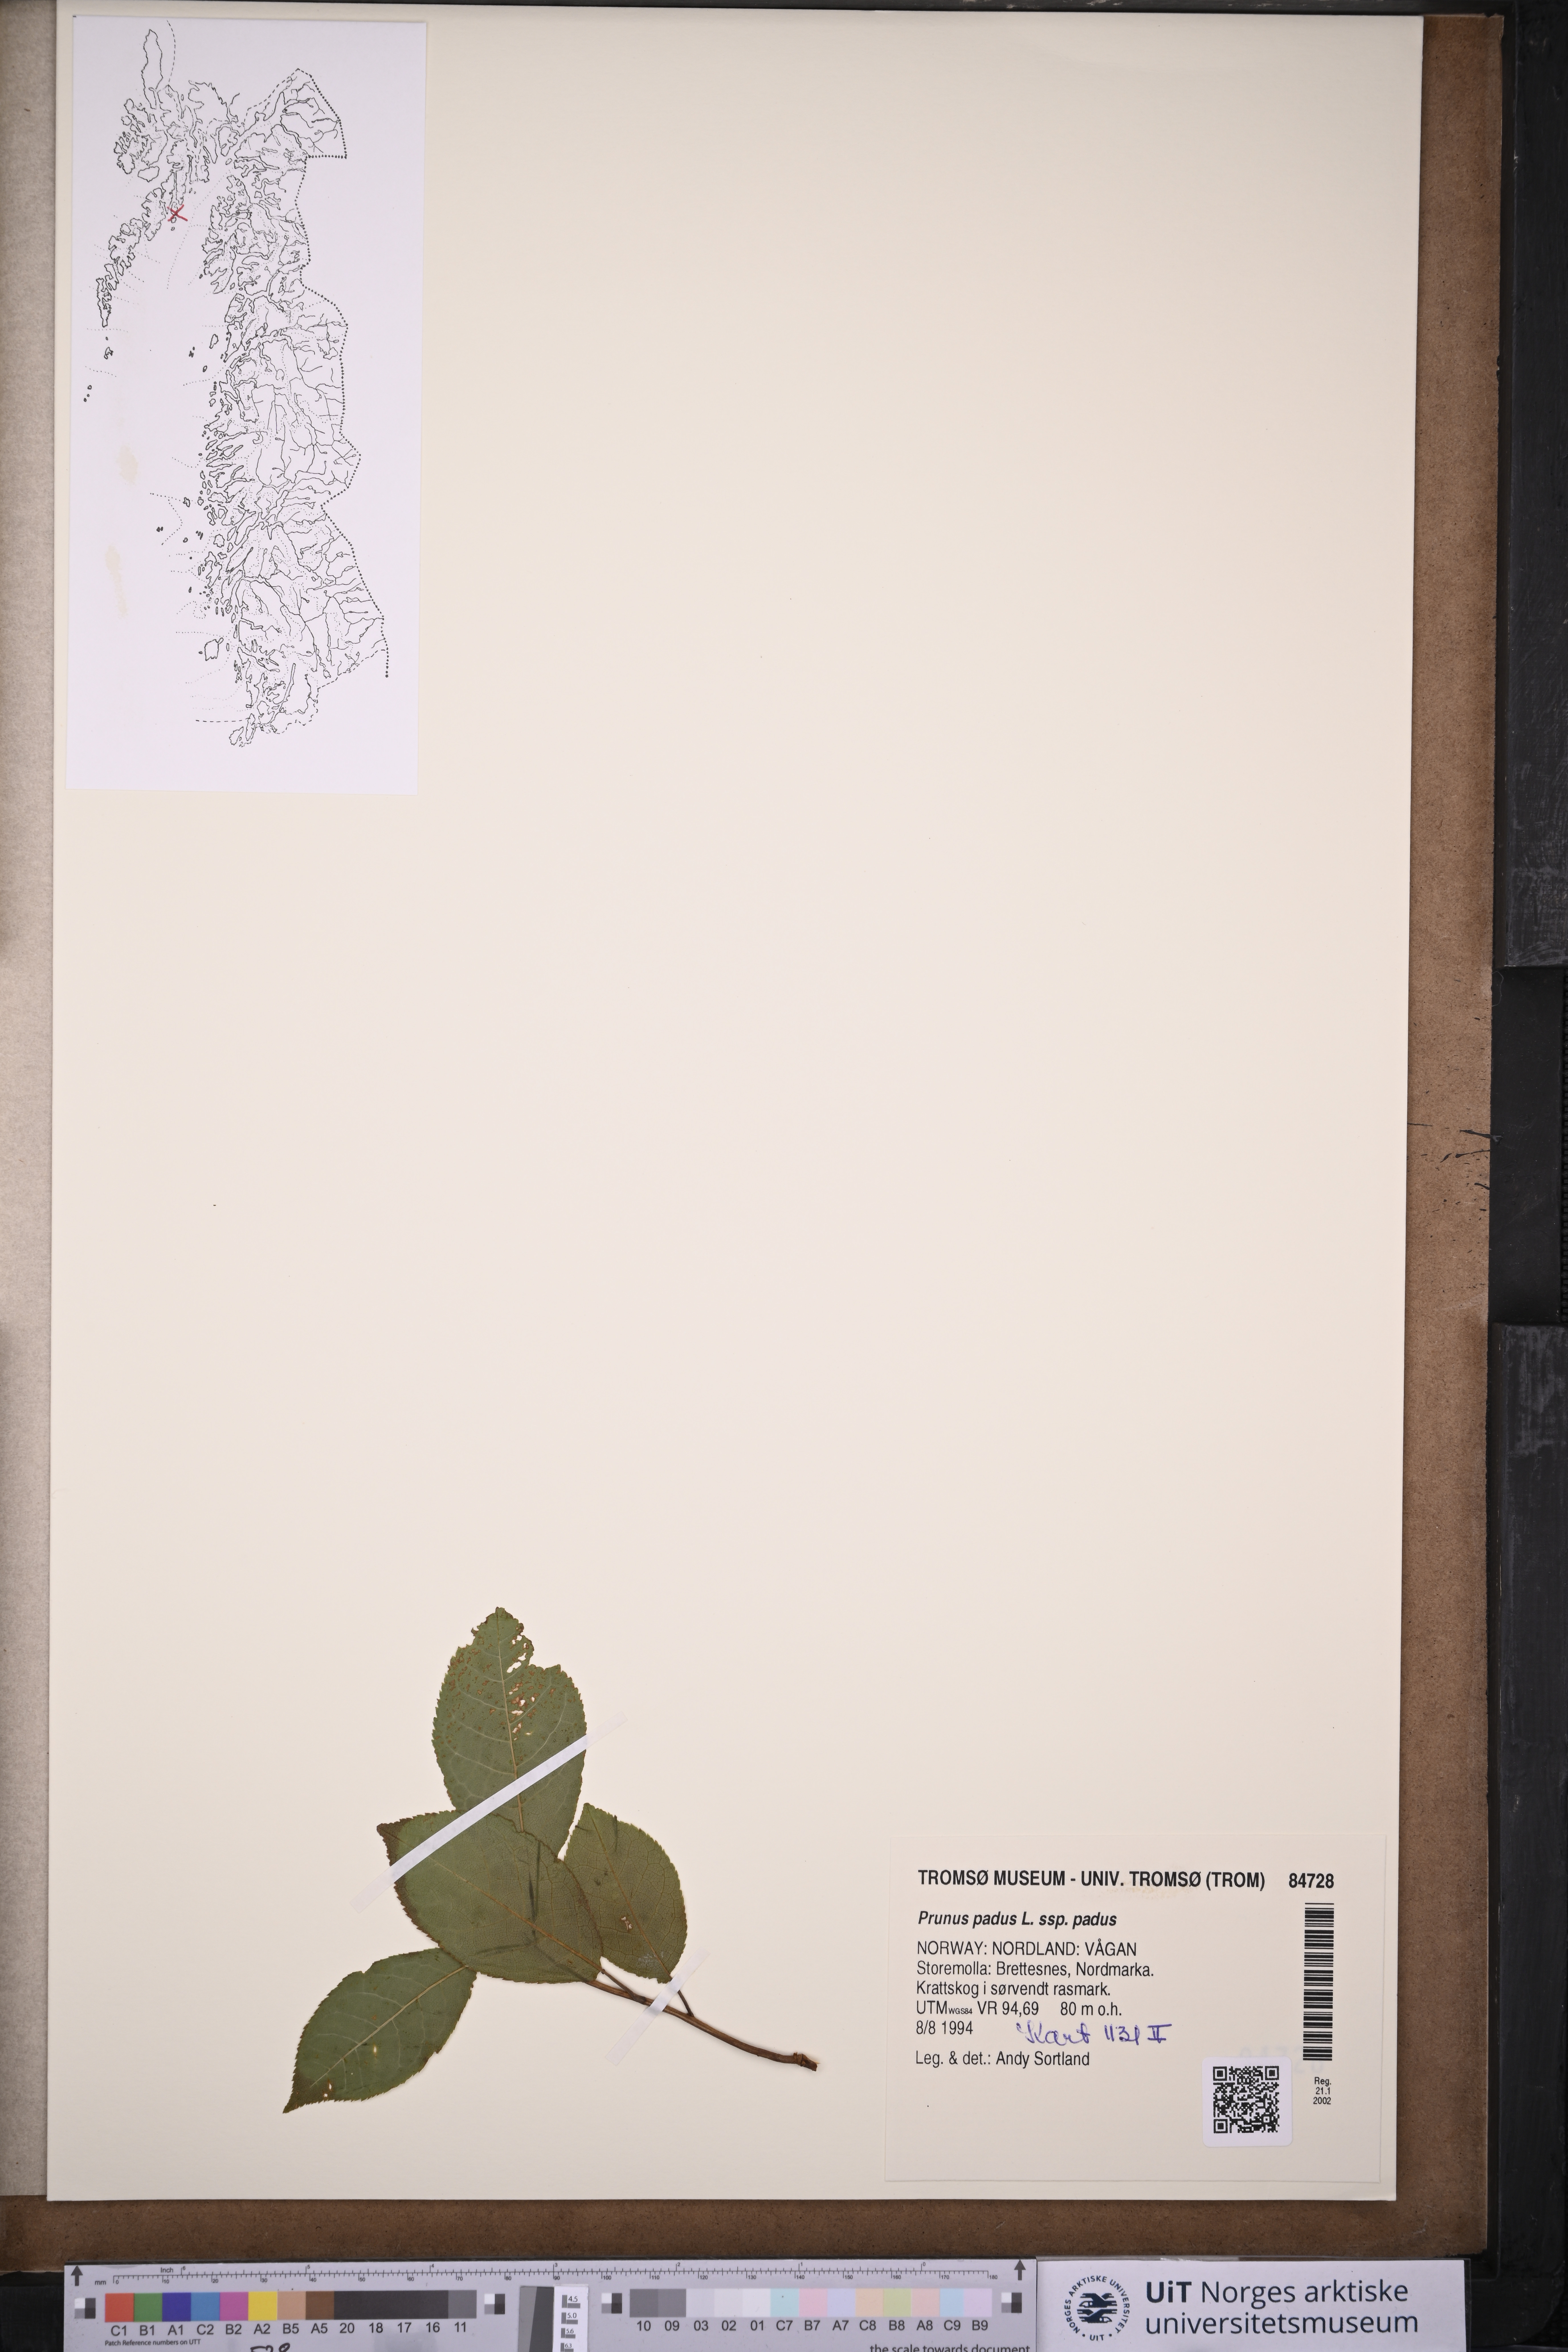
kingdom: Plantae
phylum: Tracheophyta
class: Magnoliopsida
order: Rosales
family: Rosaceae
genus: Prunus
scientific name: Prunus padus
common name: Bird cherry
